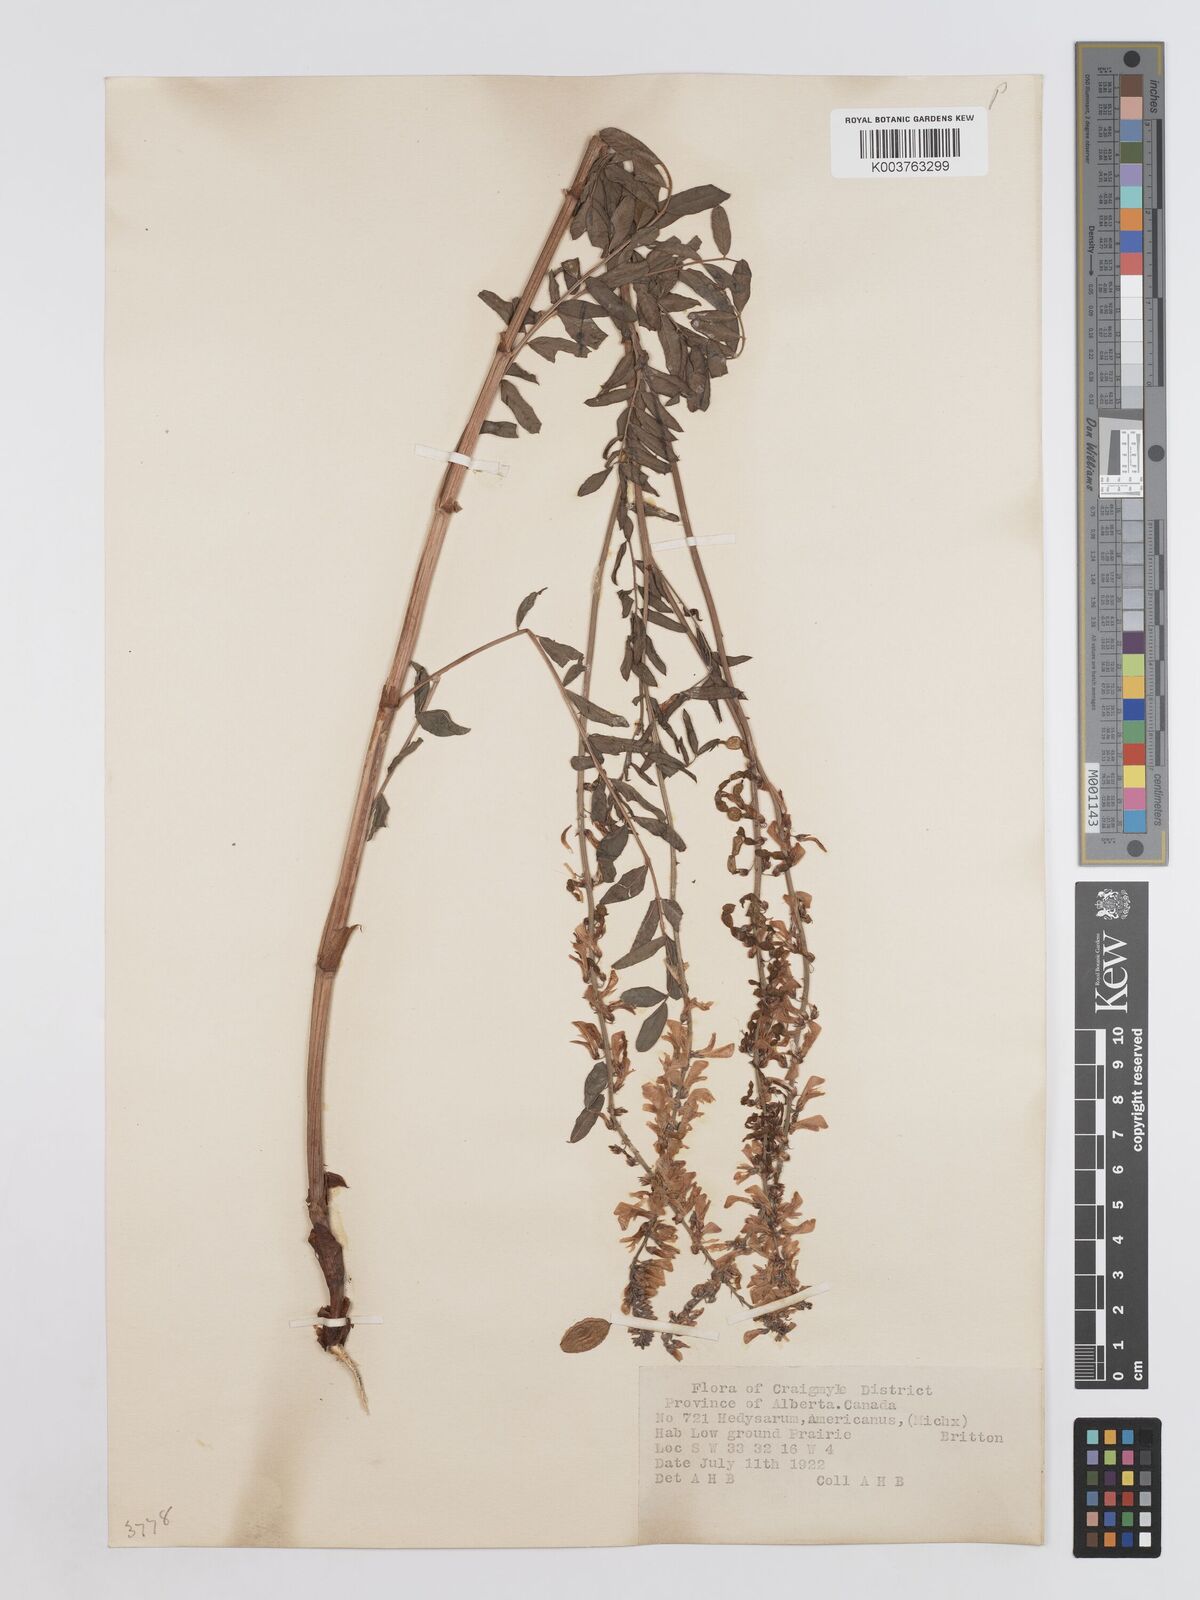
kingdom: Plantae
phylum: Tracheophyta
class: Magnoliopsida
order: Fabales
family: Fabaceae
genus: Hedysarum
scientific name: Hedysarum alpinum
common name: Alpine sweet-vetch
